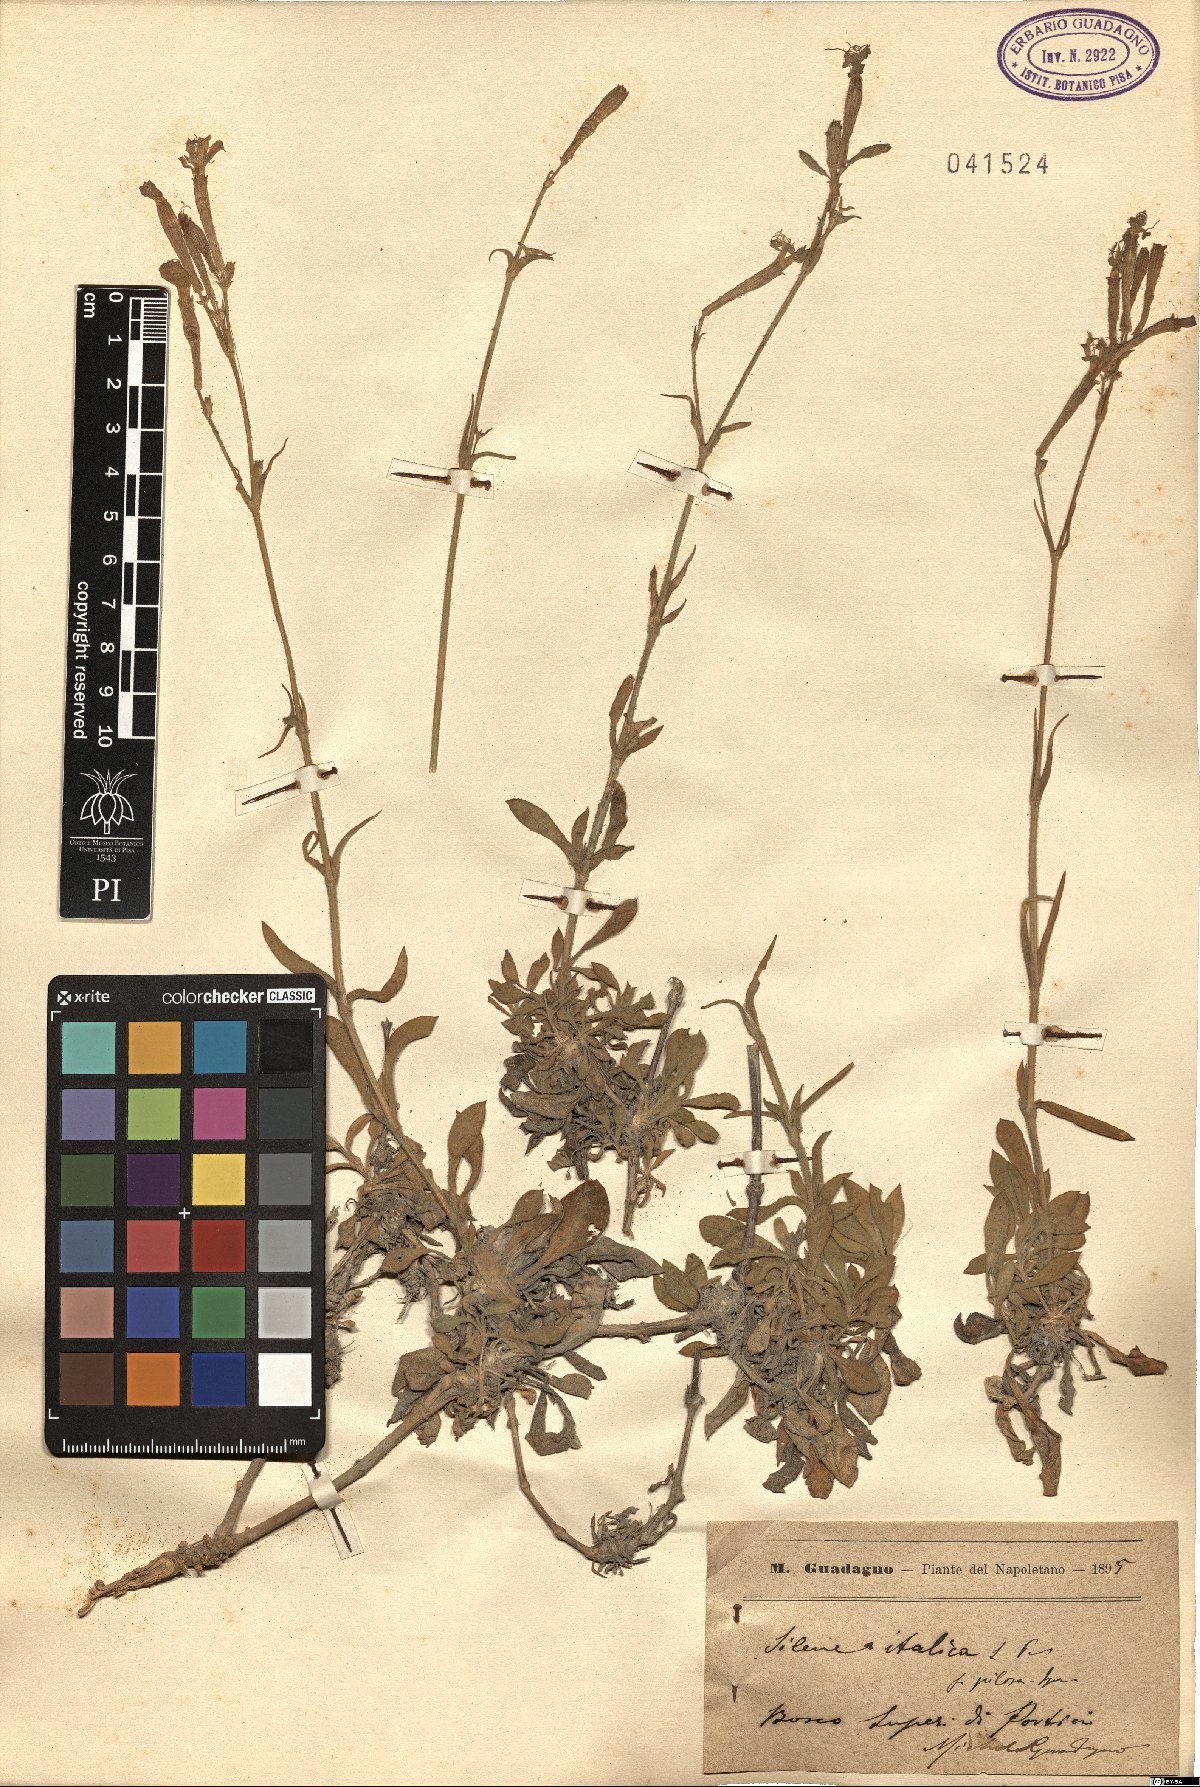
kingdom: Plantae
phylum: Tracheophyta
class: Magnoliopsida
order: Caryophyllales
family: Caryophyllaceae
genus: Silene
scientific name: Silene italica
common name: Italian catchfly
